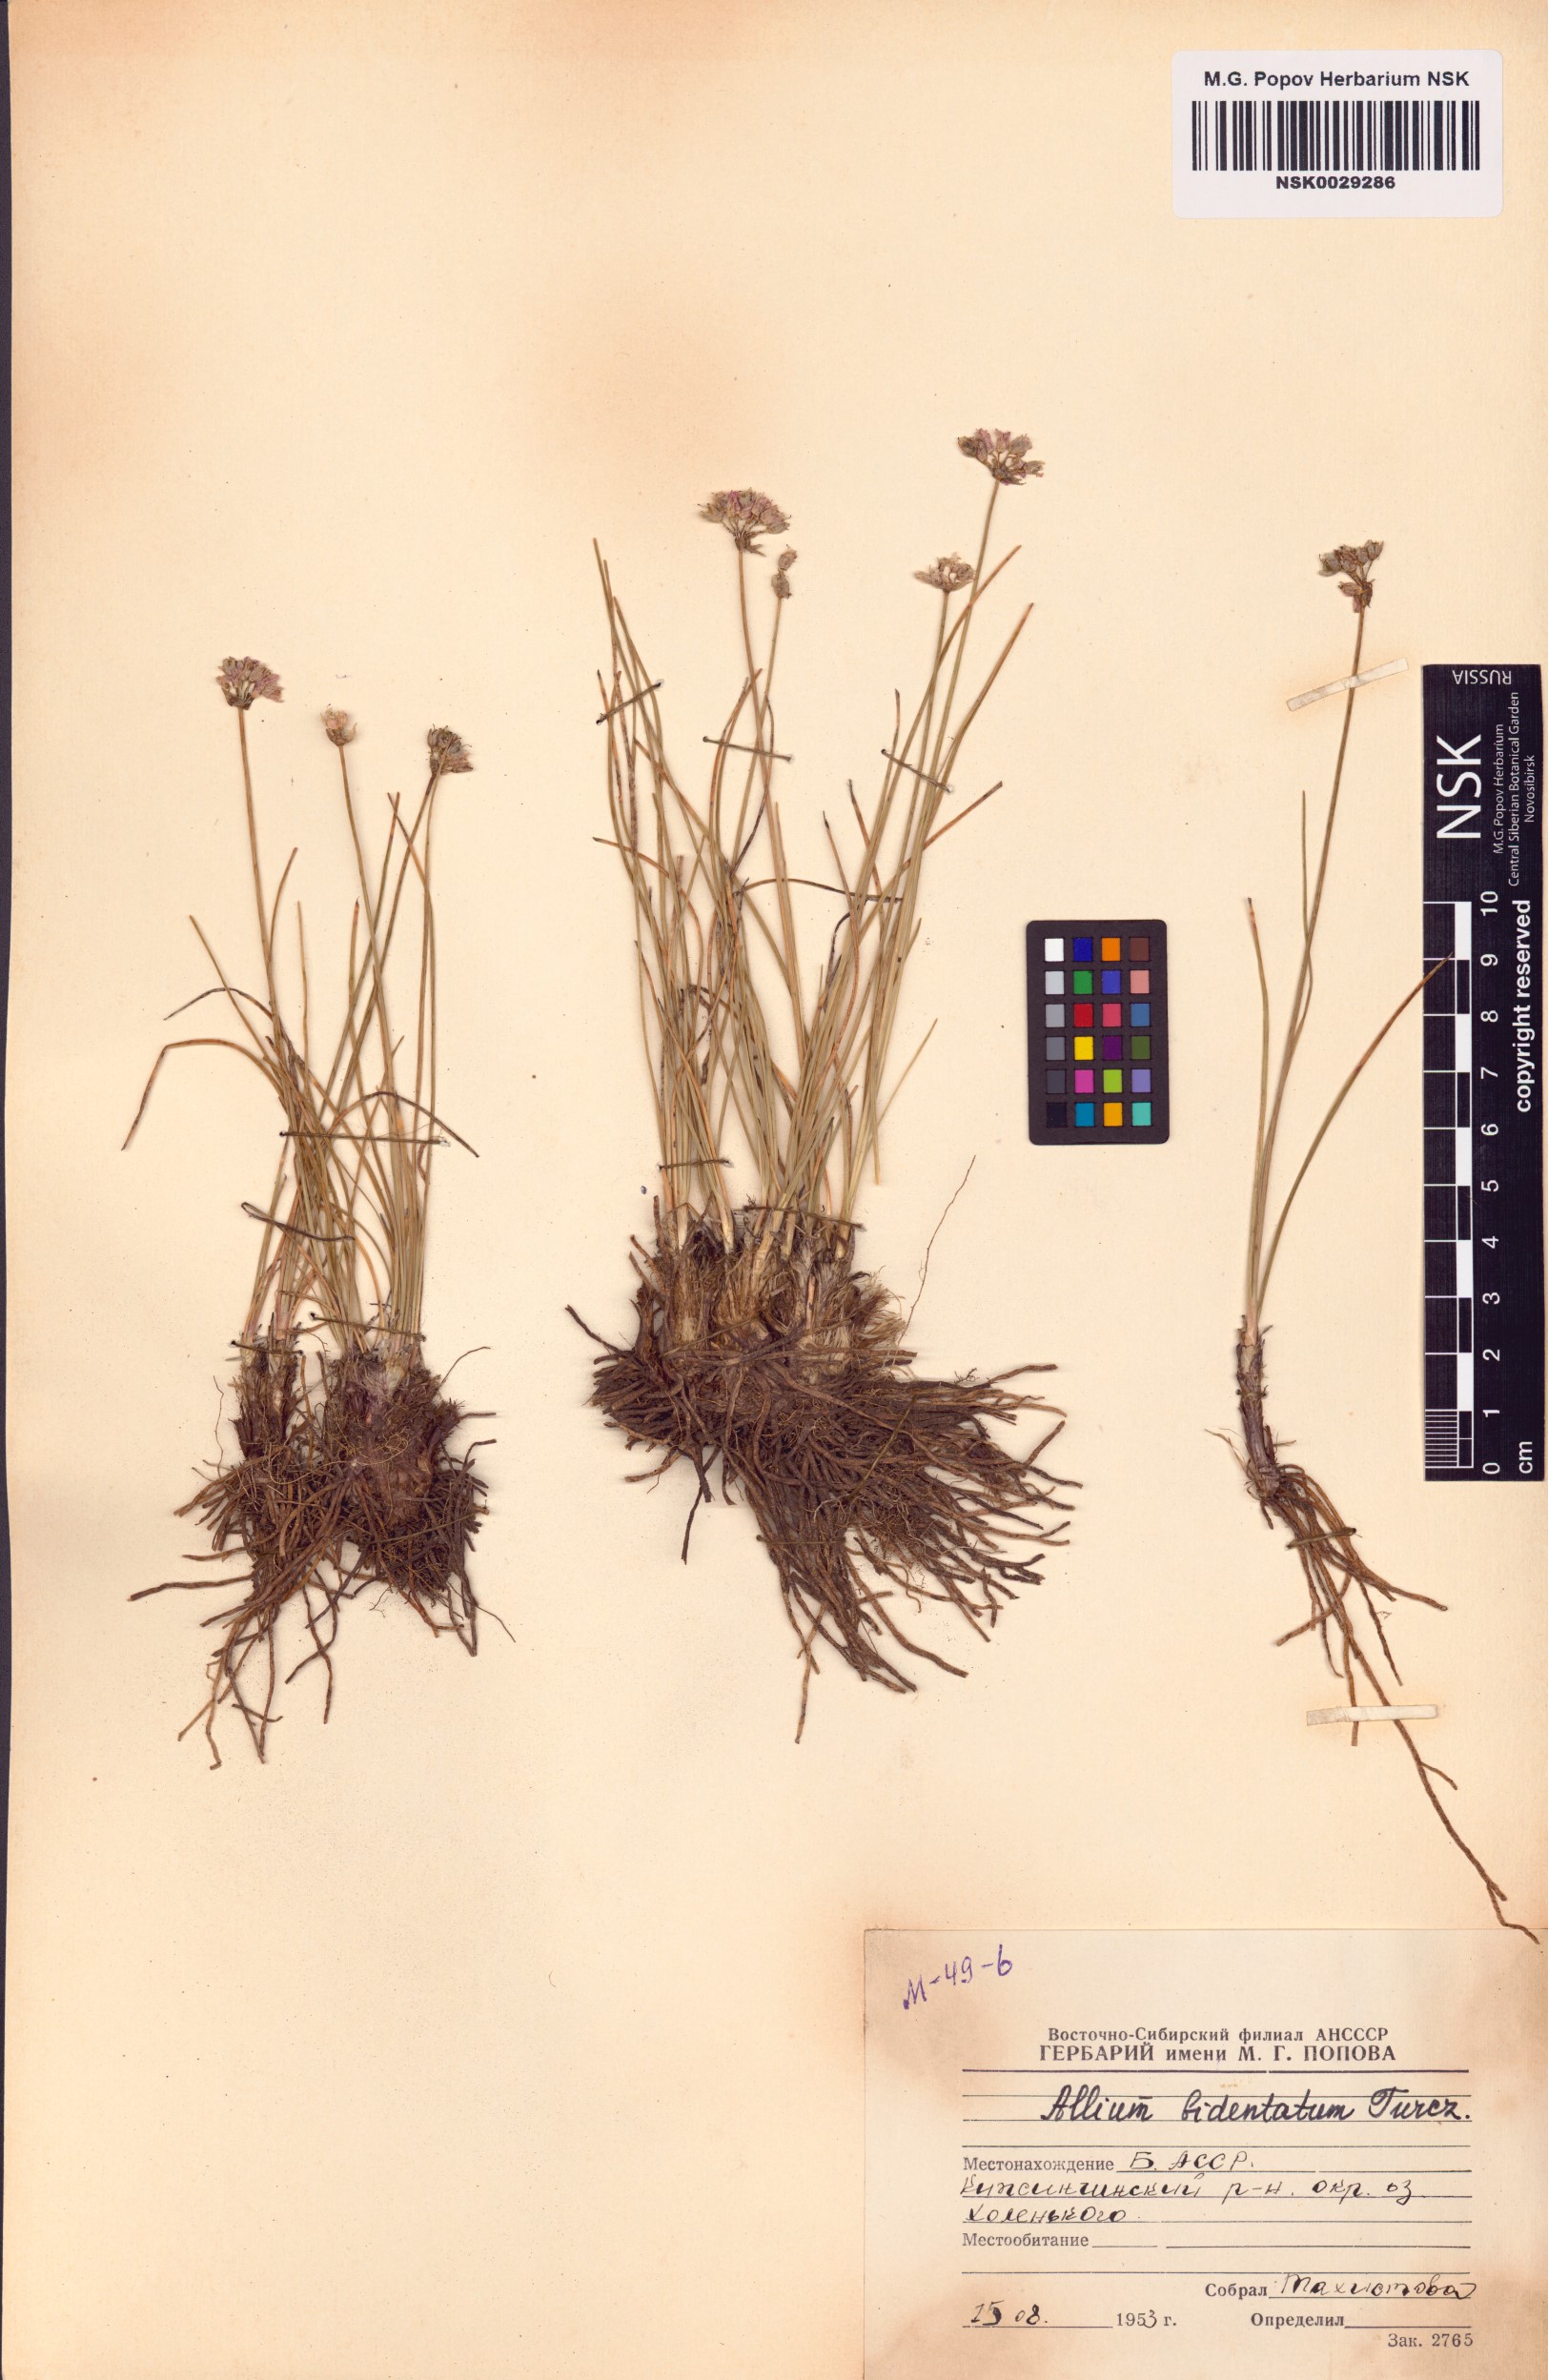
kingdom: Plantae
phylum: Tracheophyta
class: Liliopsida
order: Asparagales
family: Amaryllidaceae
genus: Allium
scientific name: Allium bidentatum
